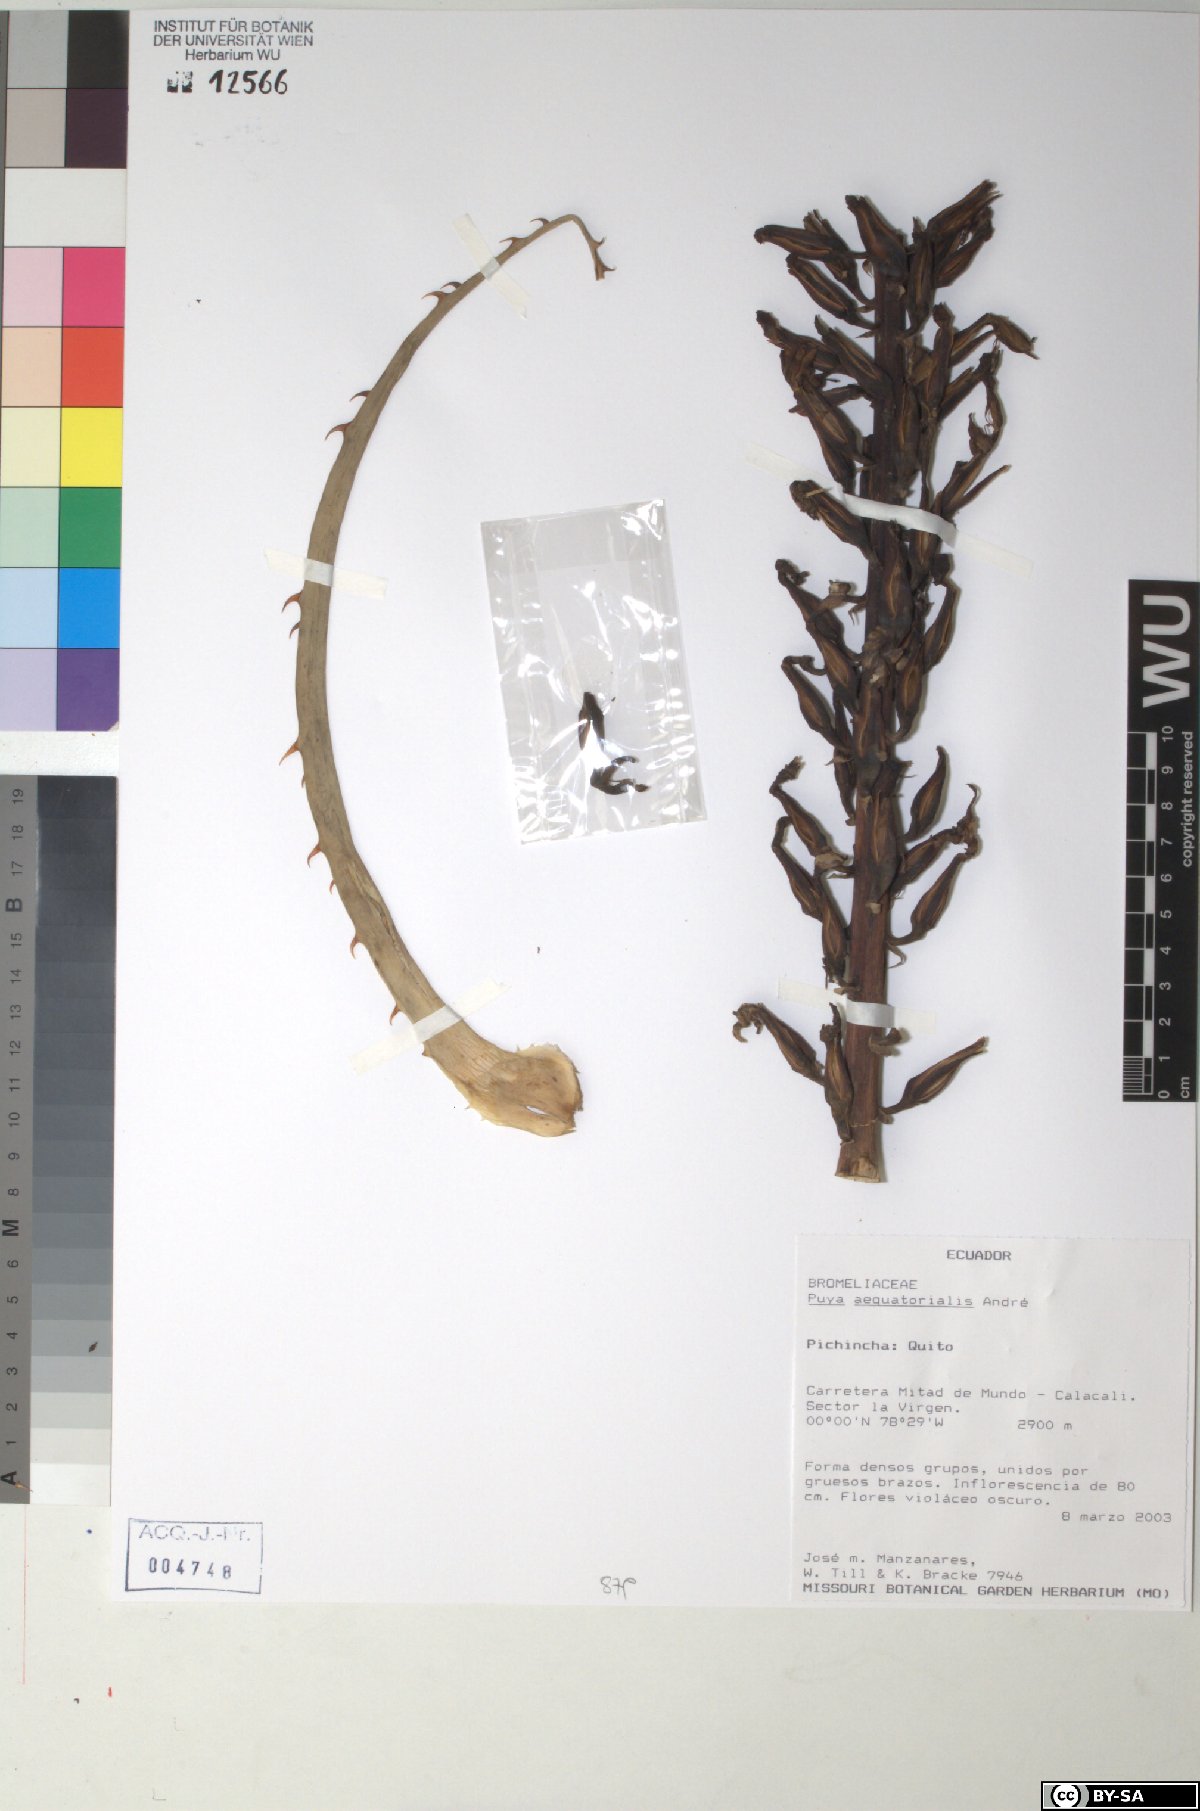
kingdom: Plantae
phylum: Tracheophyta
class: Liliopsida
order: Poales
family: Bromeliaceae
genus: Puya
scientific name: Puya aequatorialis
